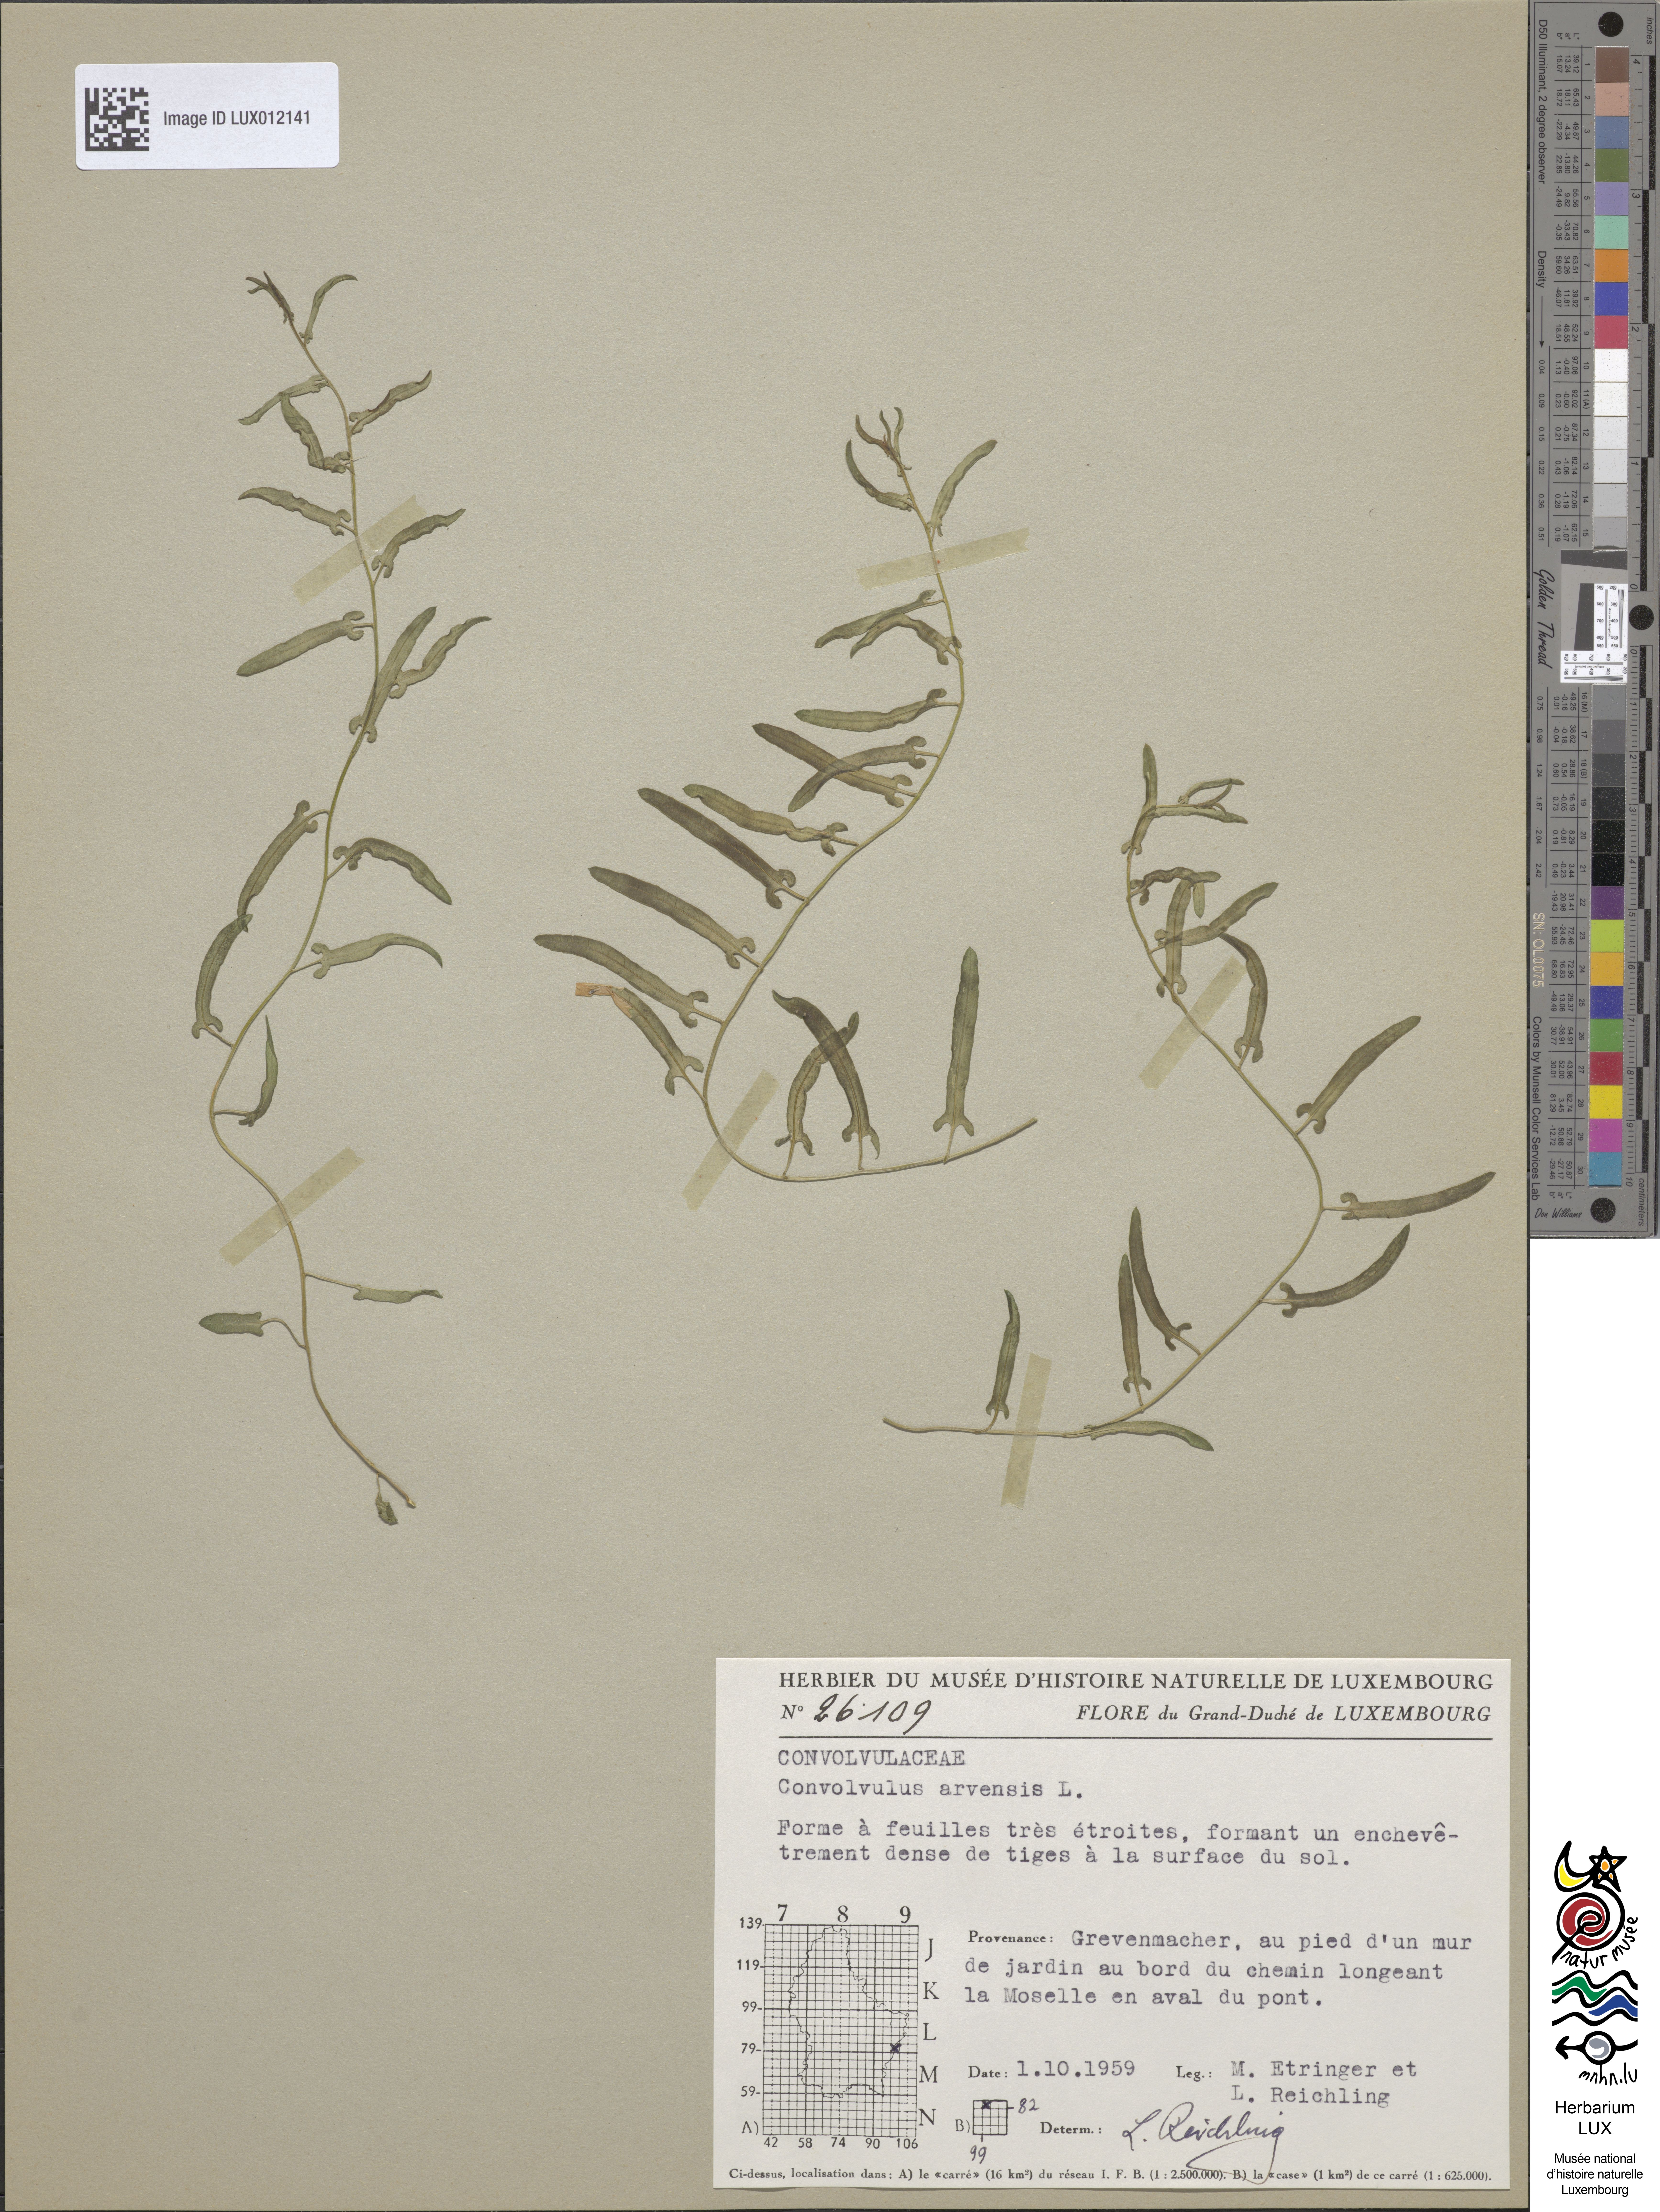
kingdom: Plantae
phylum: Tracheophyta
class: Magnoliopsida
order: Solanales
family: Convolvulaceae
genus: Convolvulus
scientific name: Convolvulus arvensis
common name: Field bindweed
